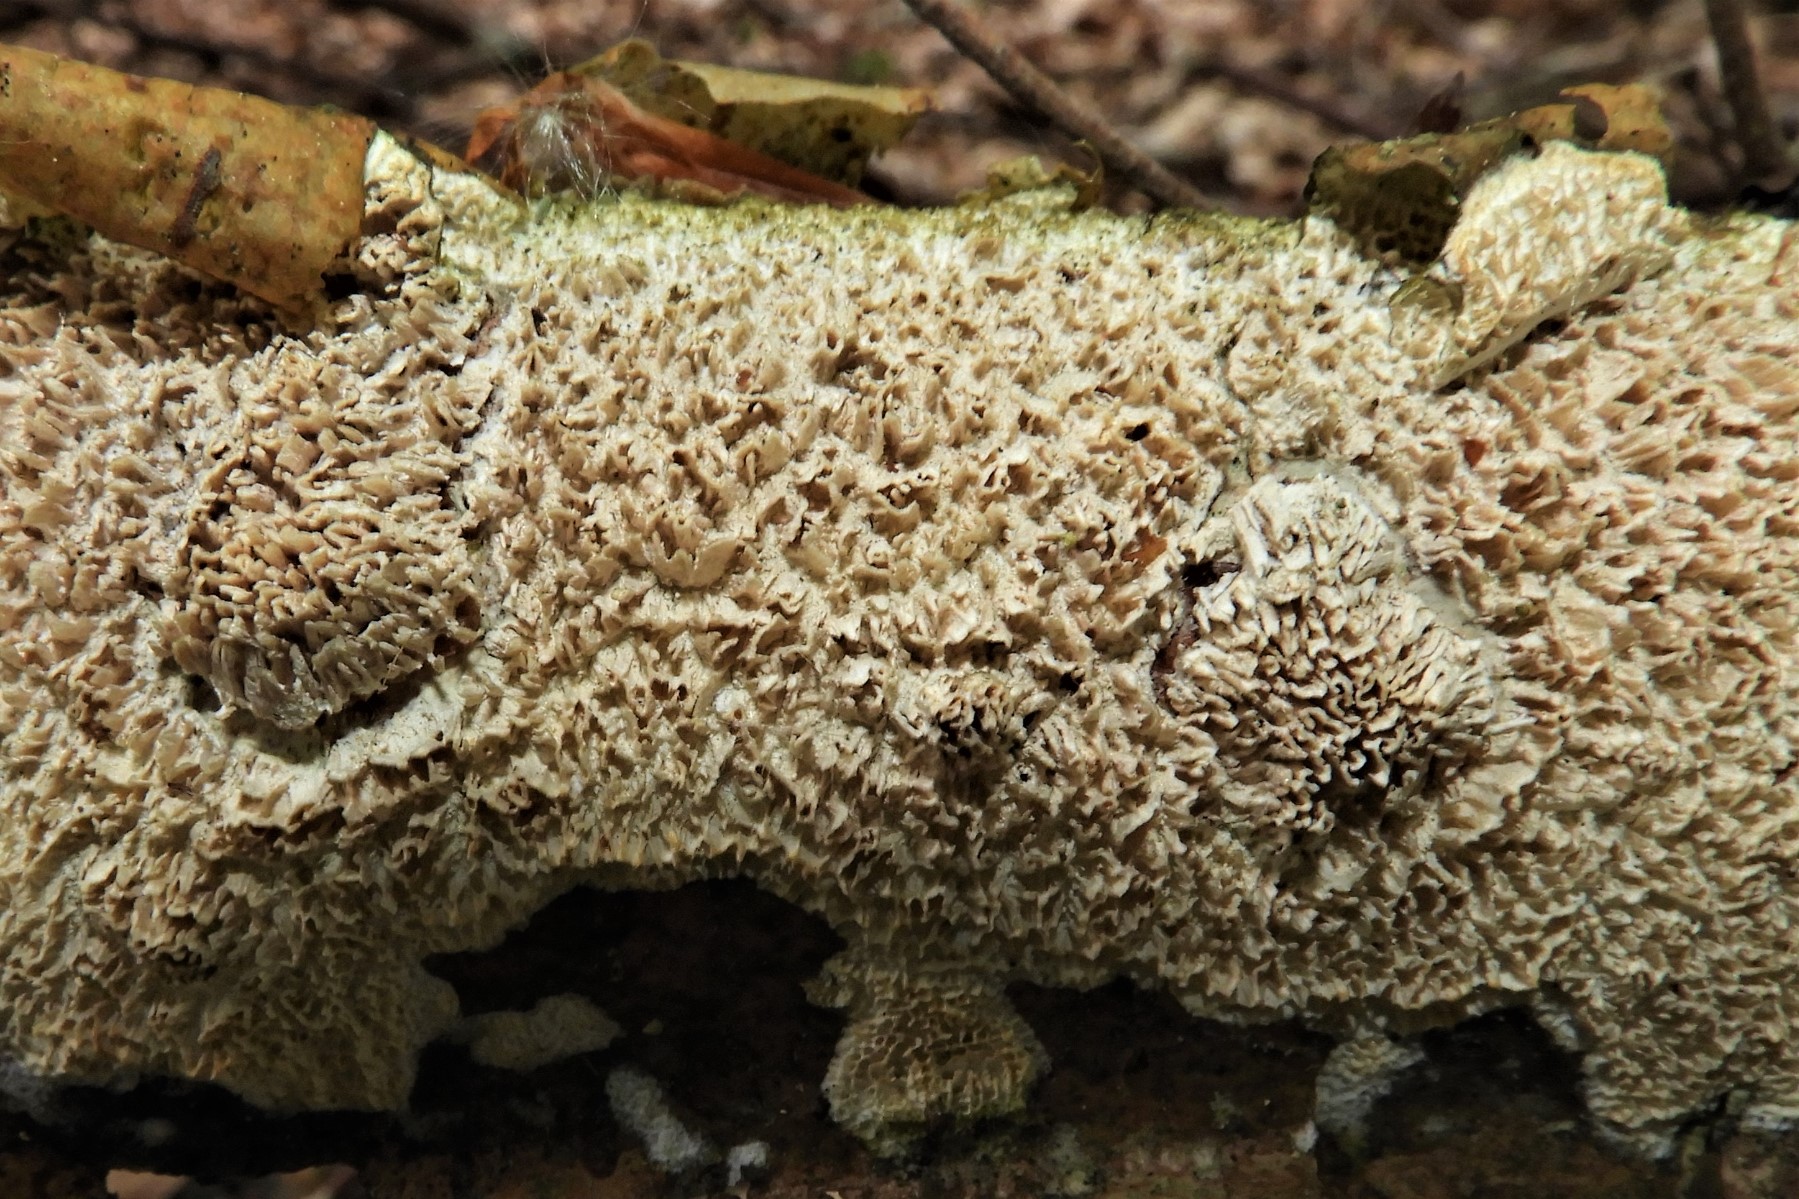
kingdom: Fungi
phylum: Basidiomycota
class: Agaricomycetes
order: Hymenochaetales
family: Schizoporaceae
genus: Xylodon
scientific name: Xylodon radula
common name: grovtandet kalkskind
